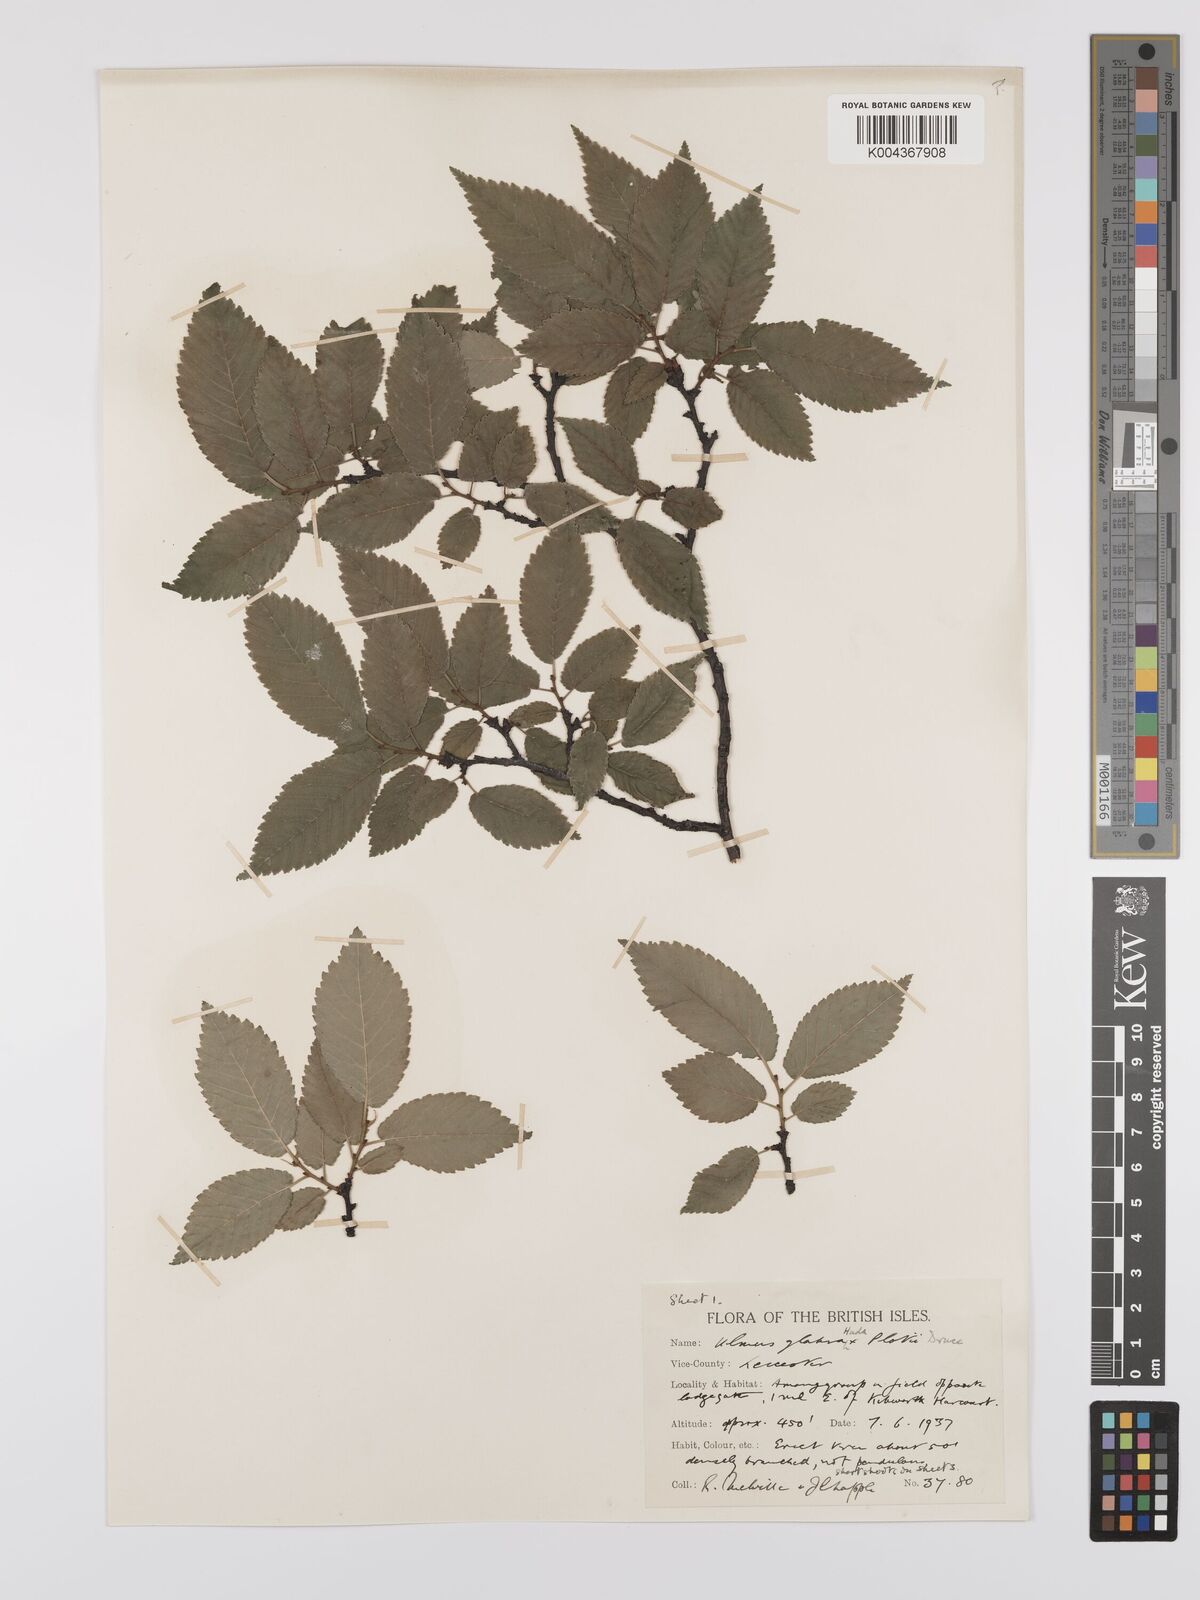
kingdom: Plantae
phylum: Tracheophyta
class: Magnoliopsida
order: Rosales
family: Ulmaceae
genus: Ulmus
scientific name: Ulmus
